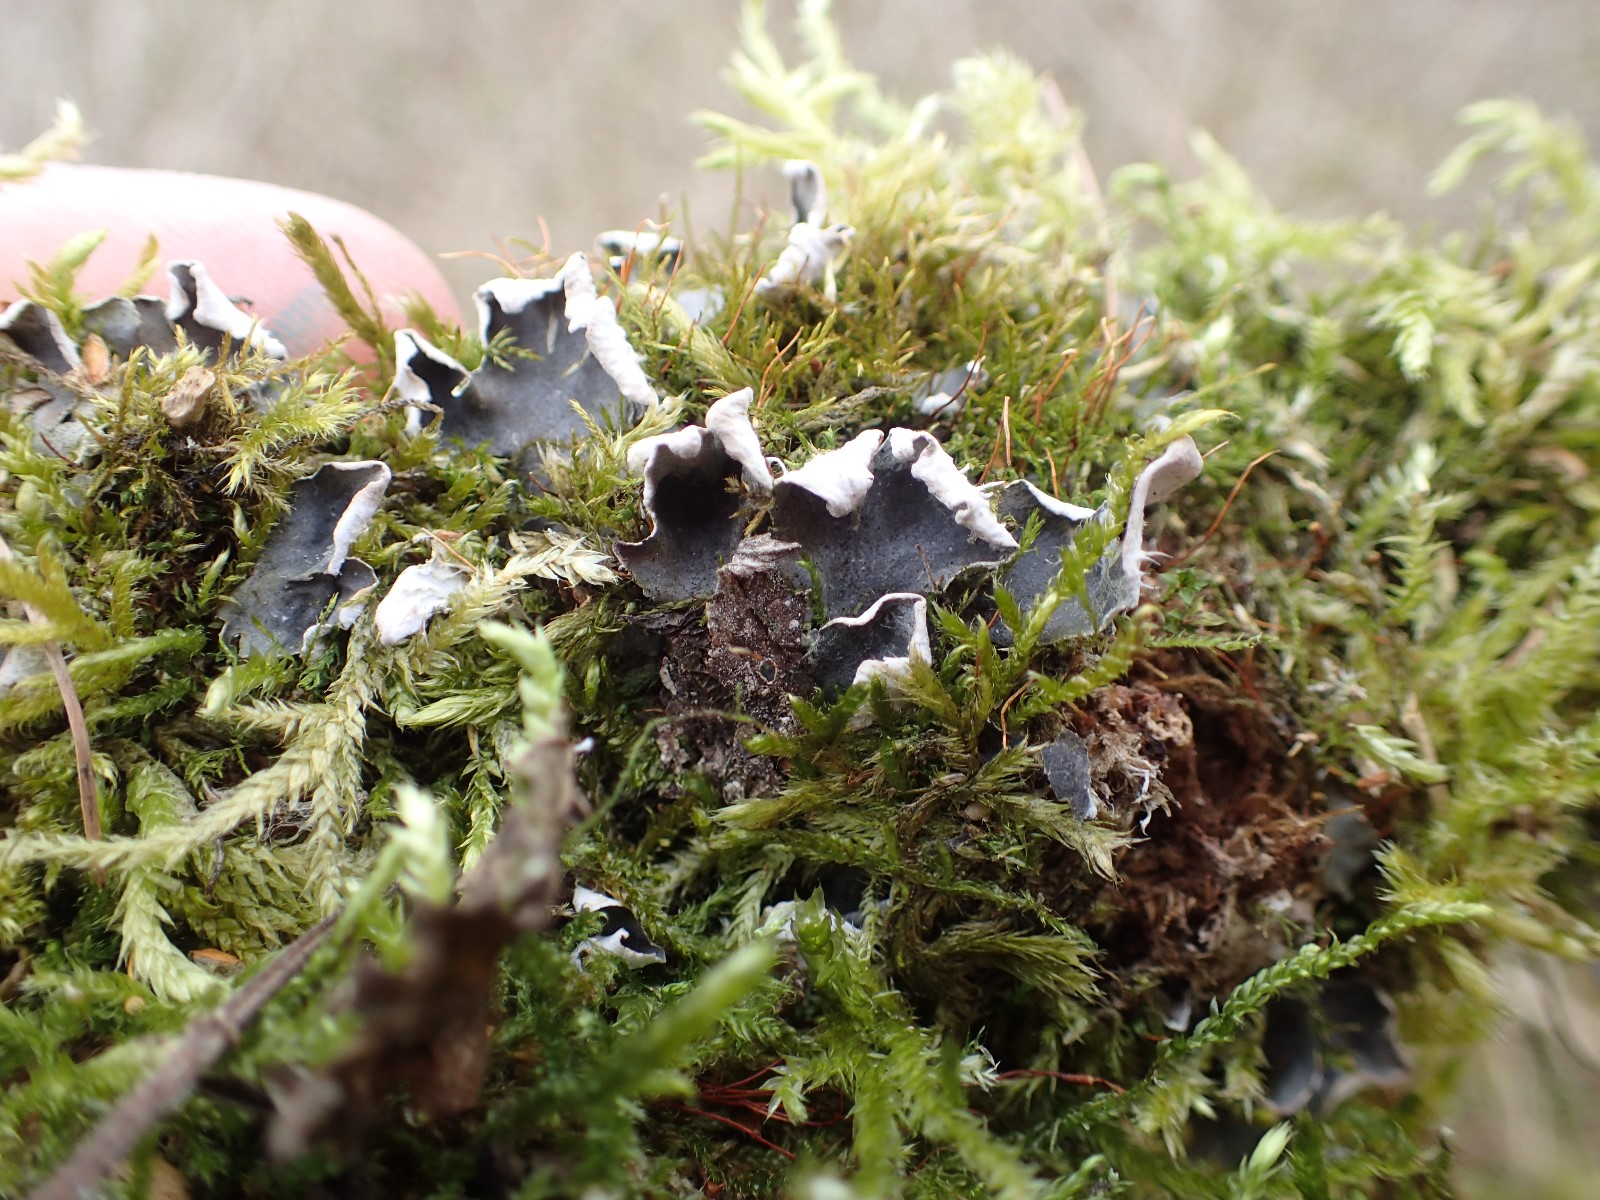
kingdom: Fungi
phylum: Ascomycota
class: Lecanoromycetes
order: Peltigerales
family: Peltigeraceae
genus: Peltigera
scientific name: Peltigera
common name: skjoldlav
